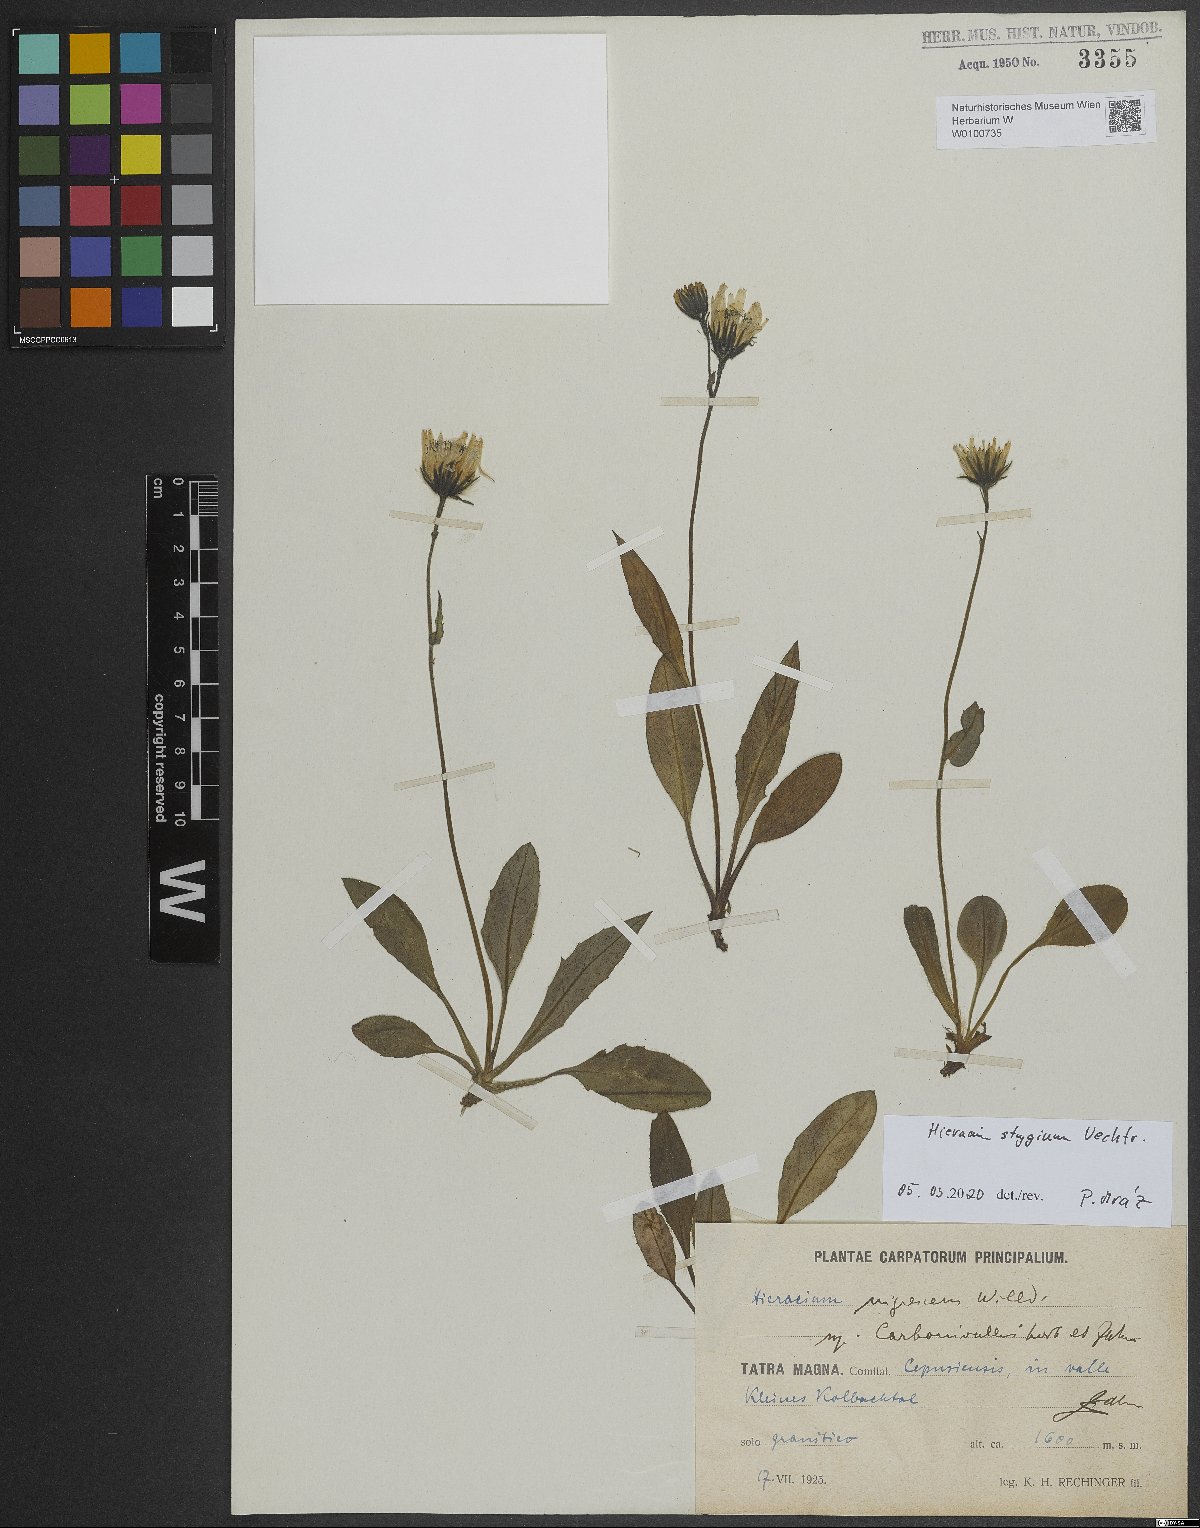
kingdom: Plantae
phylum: Tracheophyta
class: Magnoliopsida
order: Asterales
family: Asteraceae
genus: Hieracium
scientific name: Hieracium chlorocephalum
